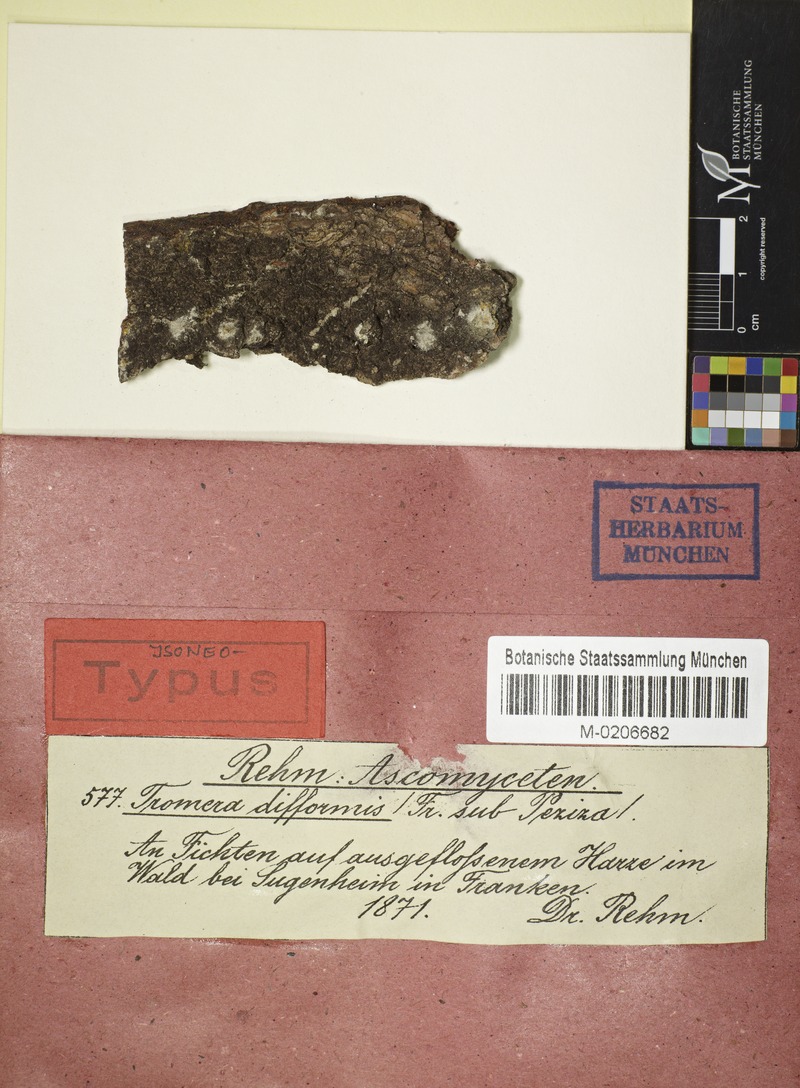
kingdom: Fungi
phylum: Ascomycota
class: Sareomycetes
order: Sareales
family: Sareaceae
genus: Sarea
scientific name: Sarea difformis
